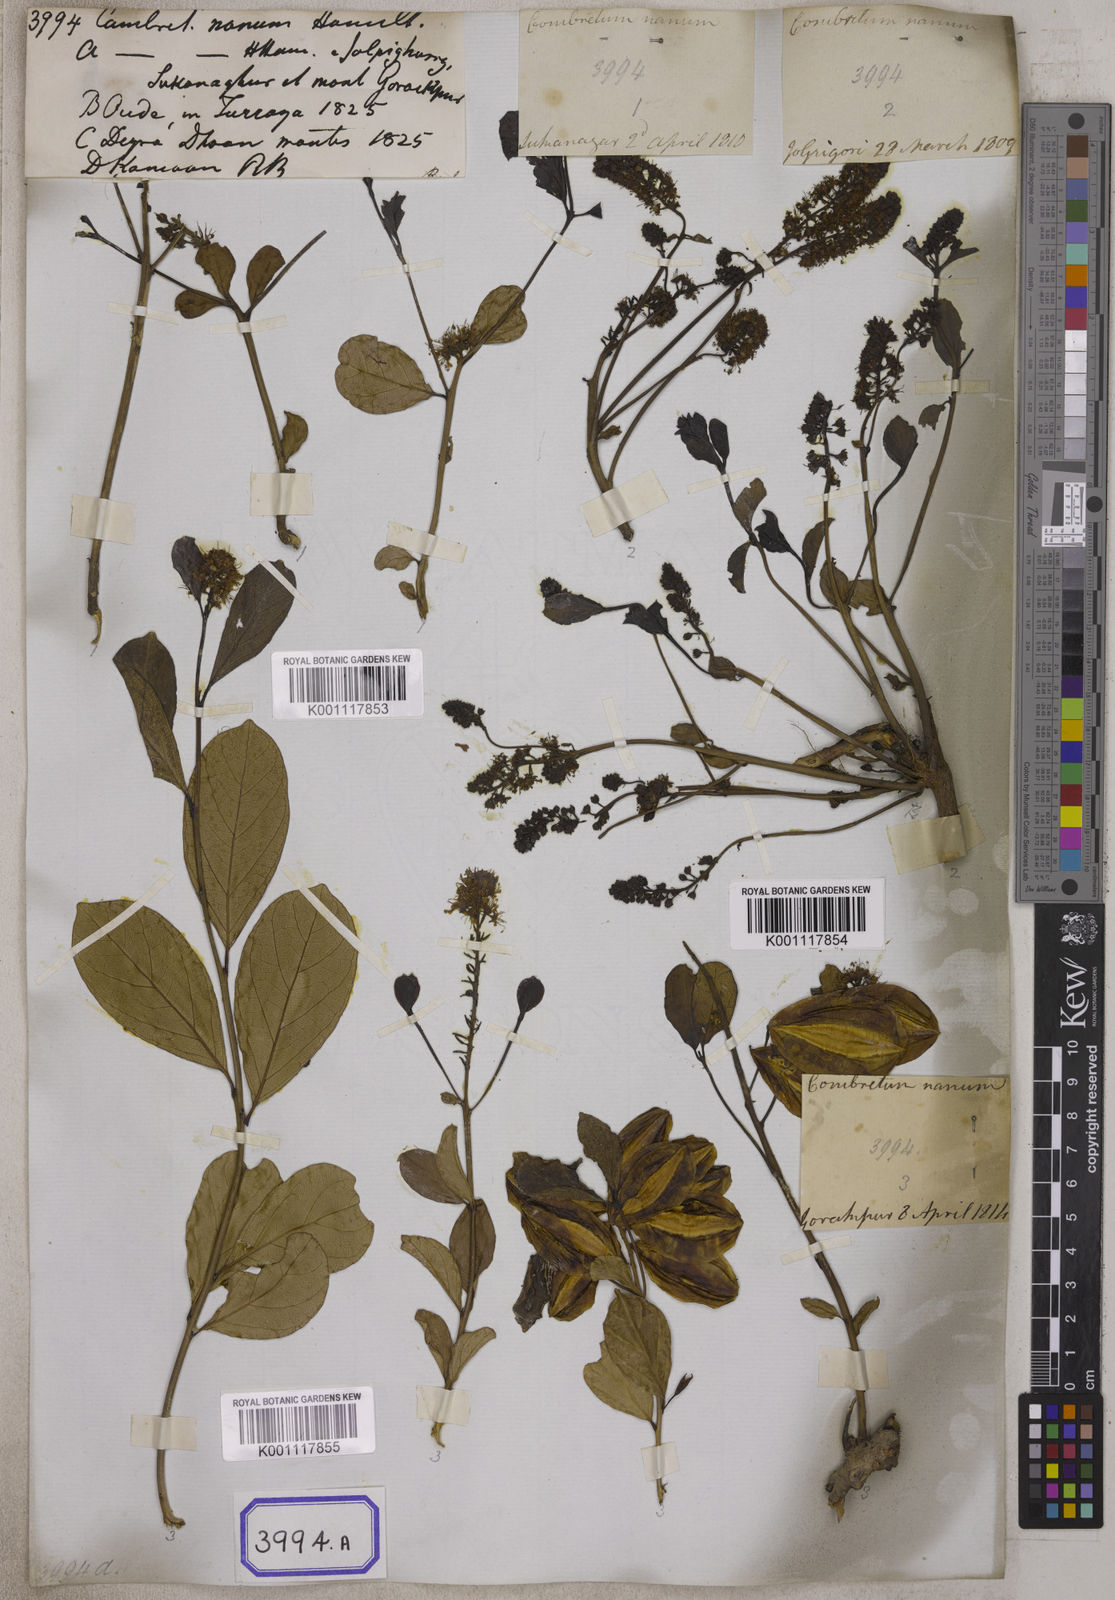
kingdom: Plantae
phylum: Tracheophyta
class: Magnoliopsida
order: Myrtales
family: Combretaceae
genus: Combretum
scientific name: Combretum
